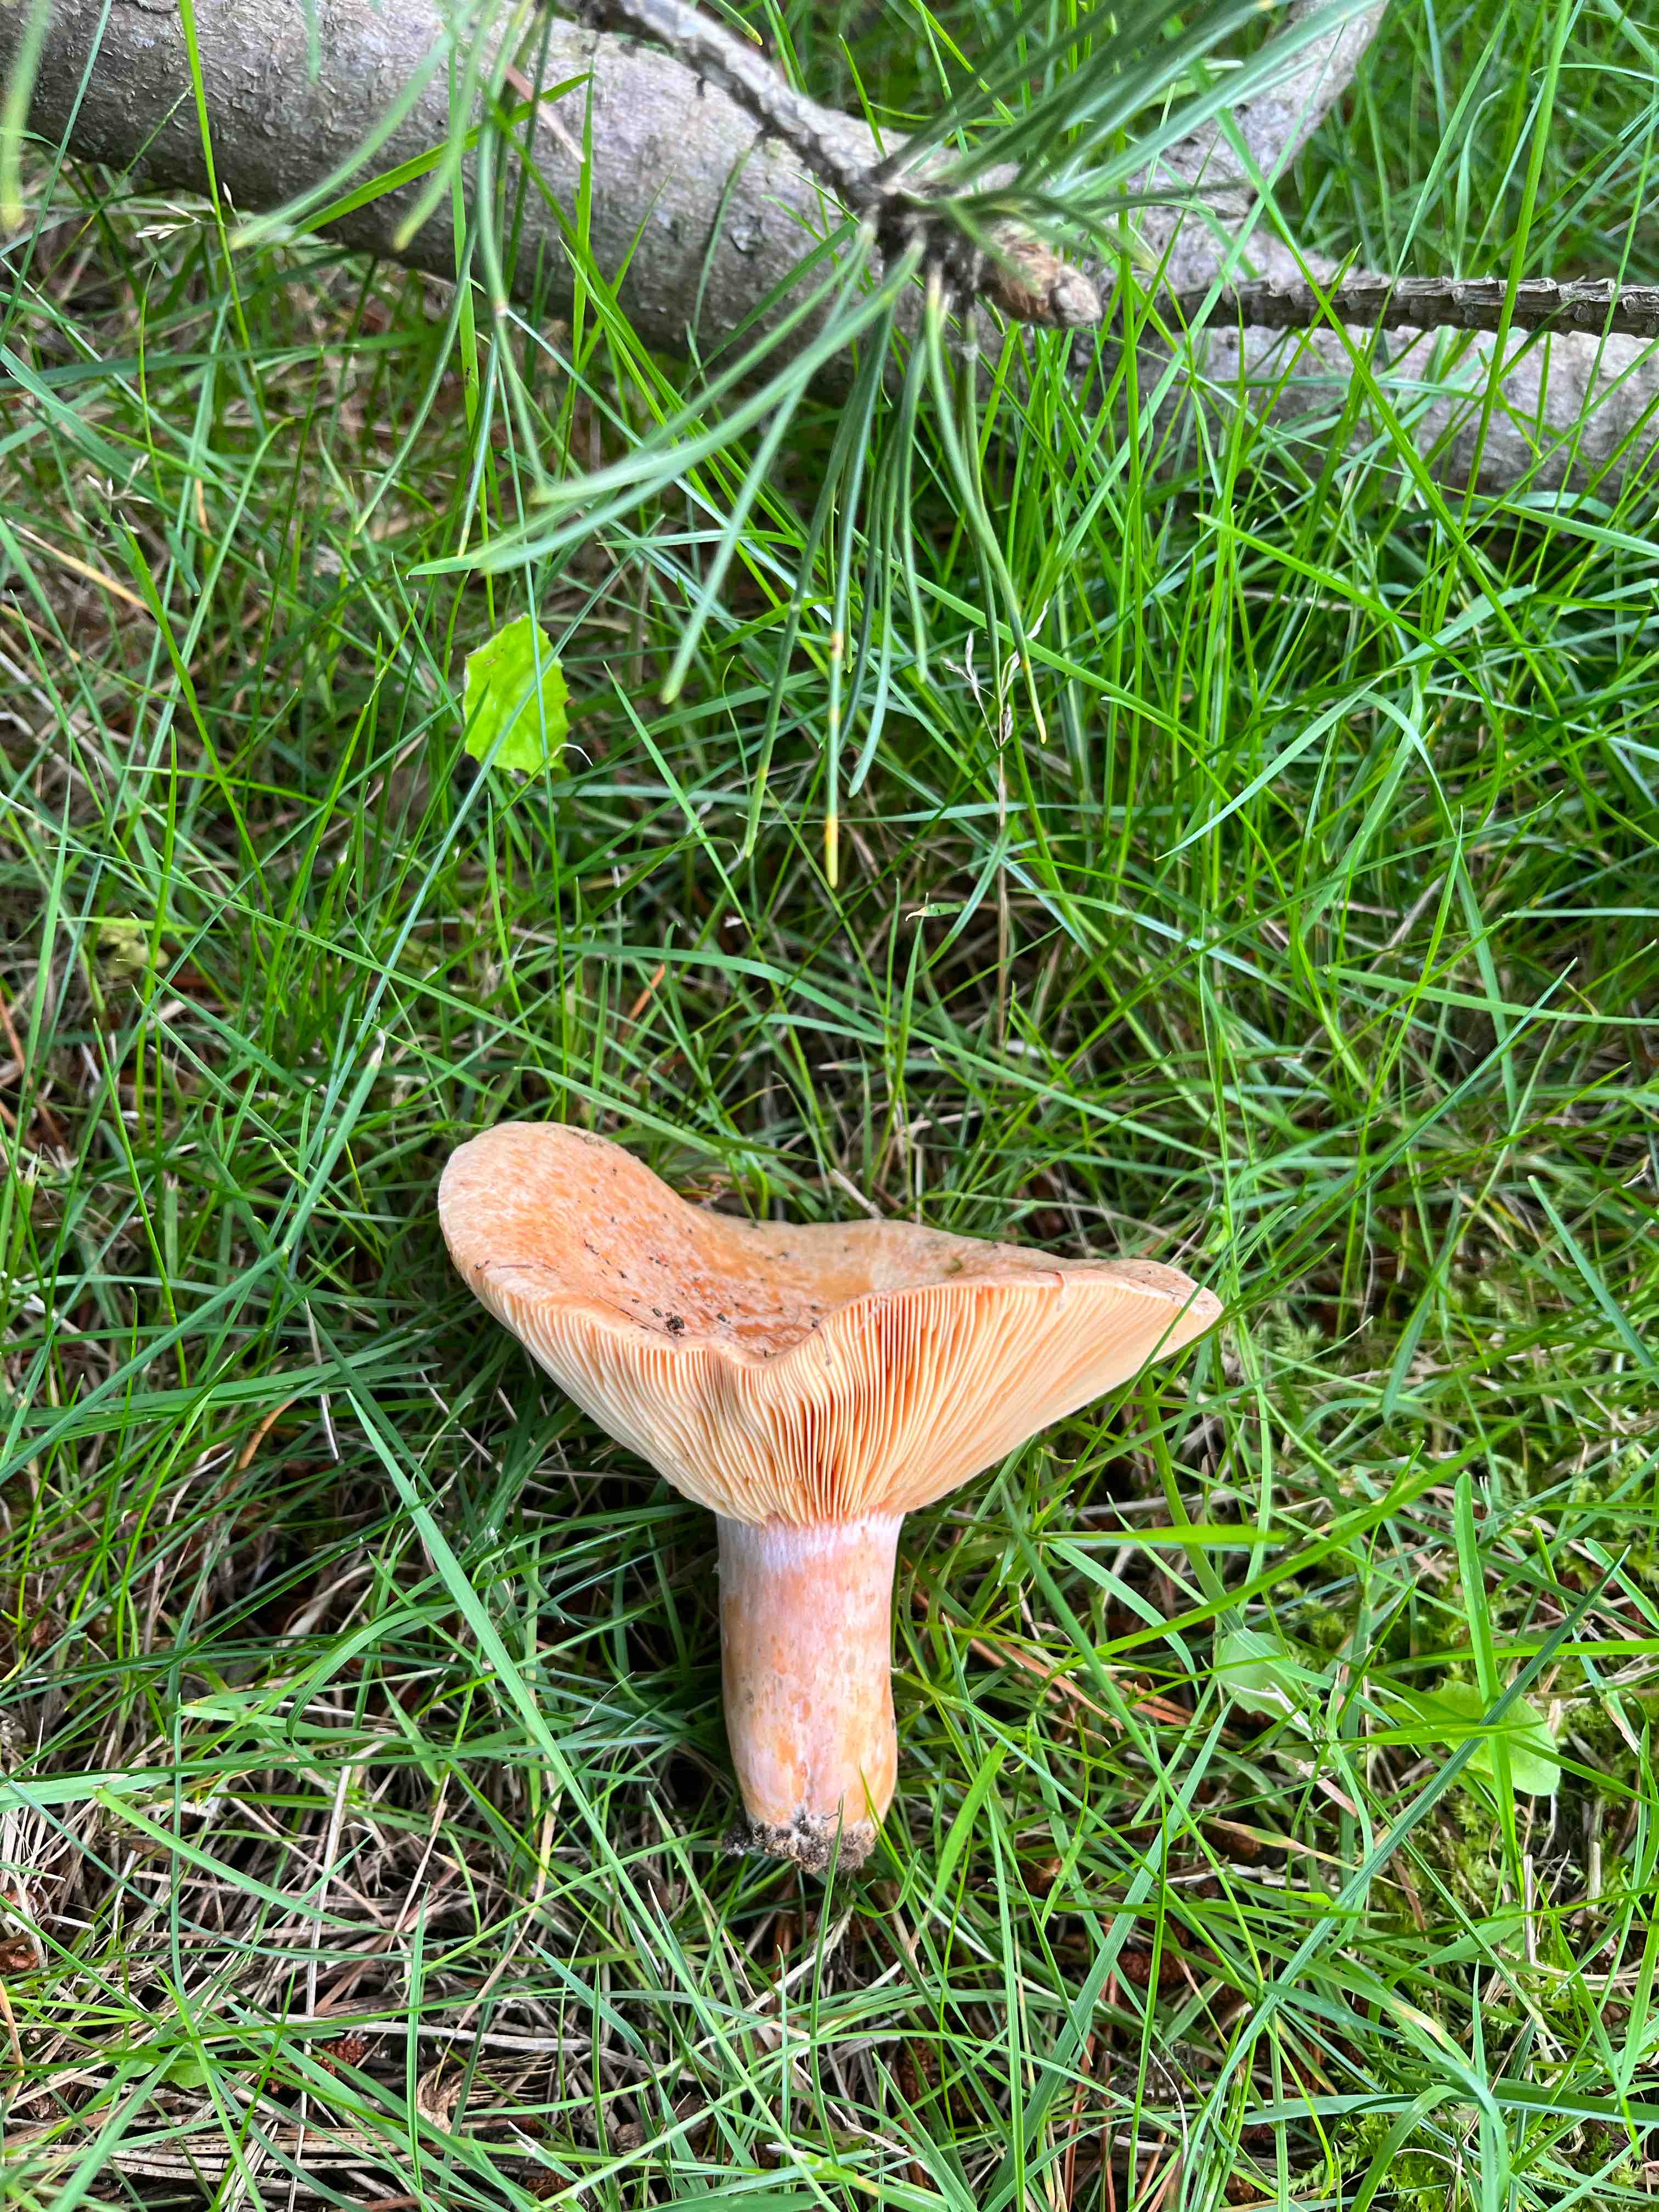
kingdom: Fungi
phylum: Basidiomycota
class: Agaricomycetes
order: Russulales
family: Russulaceae
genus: Lactarius
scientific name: Lactarius deliciosus
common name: velsmagende mælkehat
